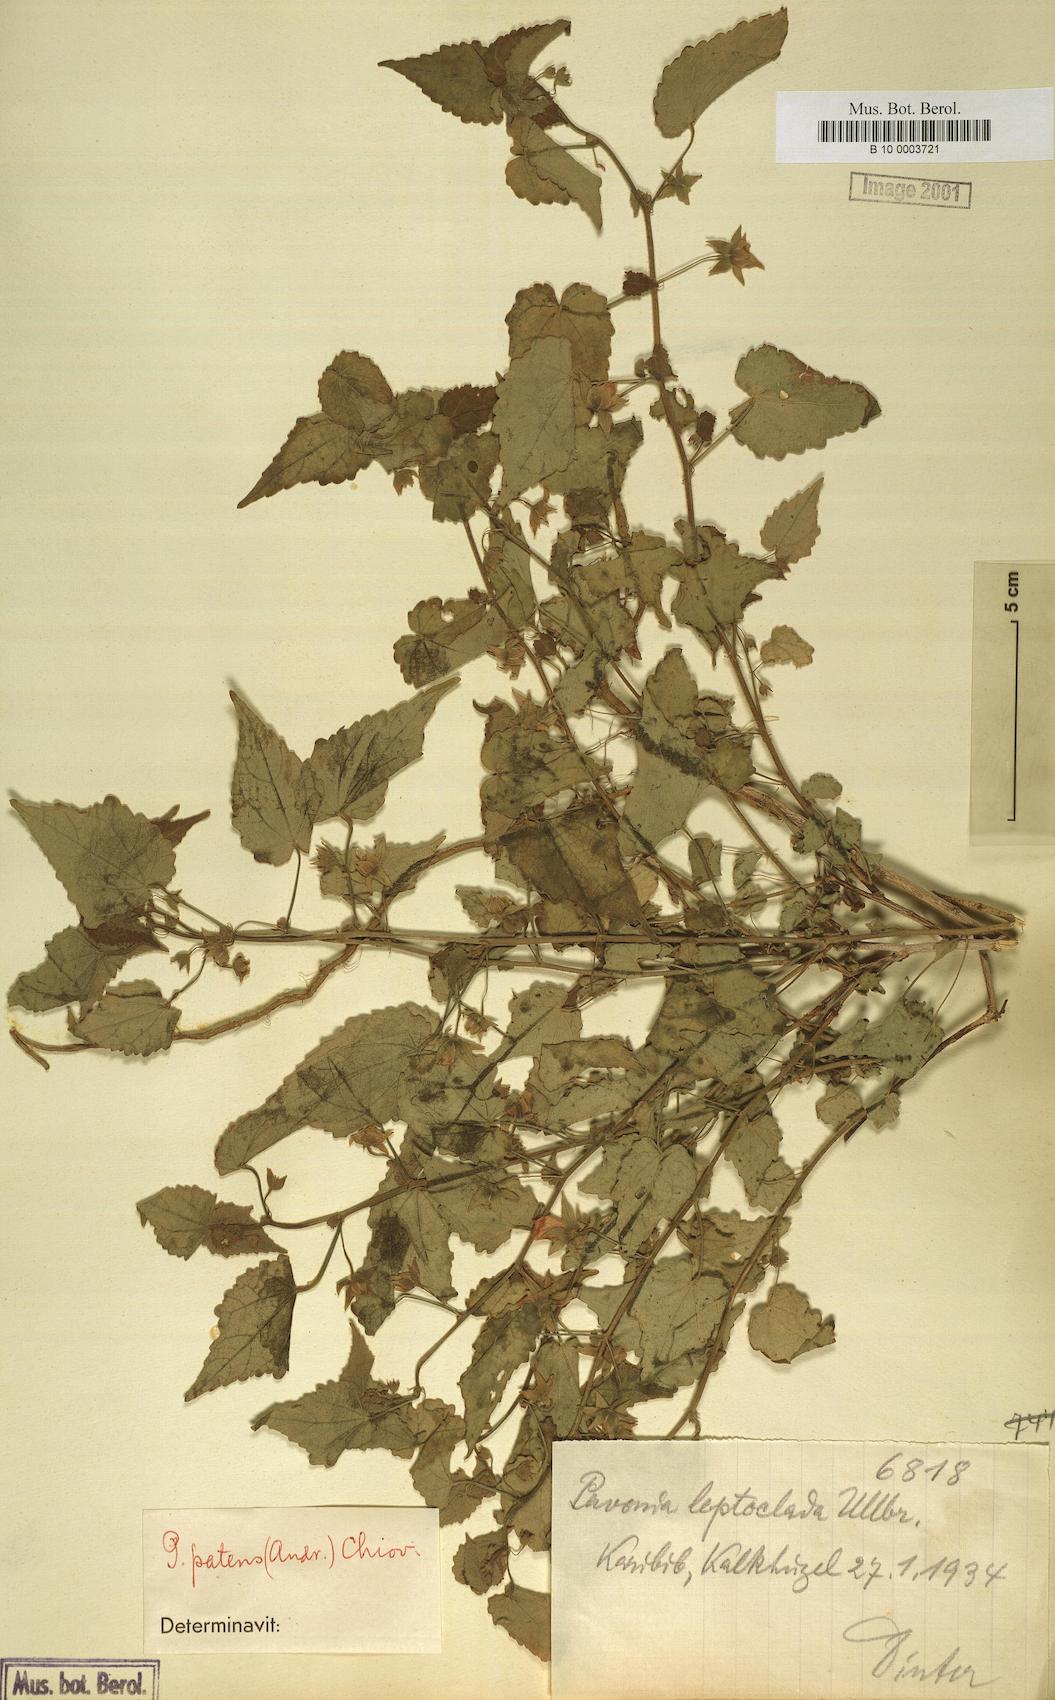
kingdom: Plantae
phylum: Tracheophyta
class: Magnoliopsida
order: Malvales
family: Malvaceae
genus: Abutilon
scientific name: Abutilon mauritianum
